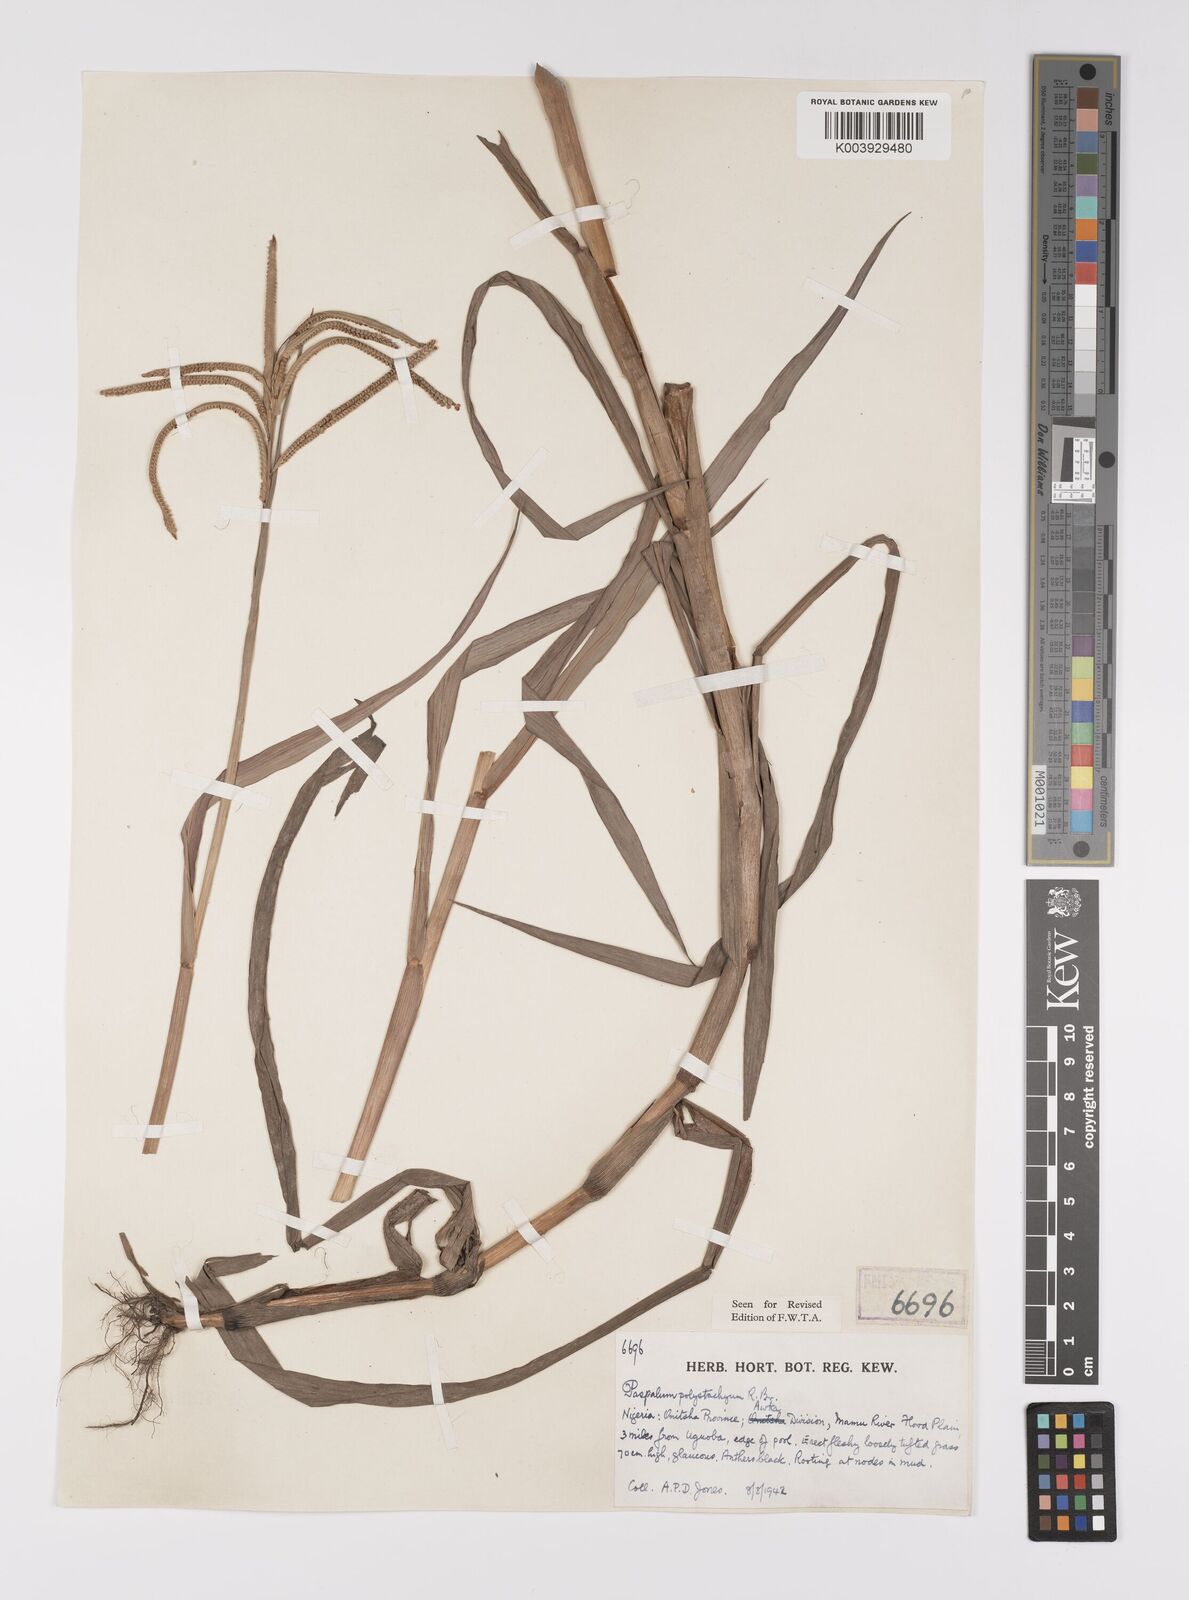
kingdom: Plantae
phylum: Tracheophyta
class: Liliopsida
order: Poales
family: Poaceae
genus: Paspalum
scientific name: Paspalum scrobiculatum
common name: Kodo millet
